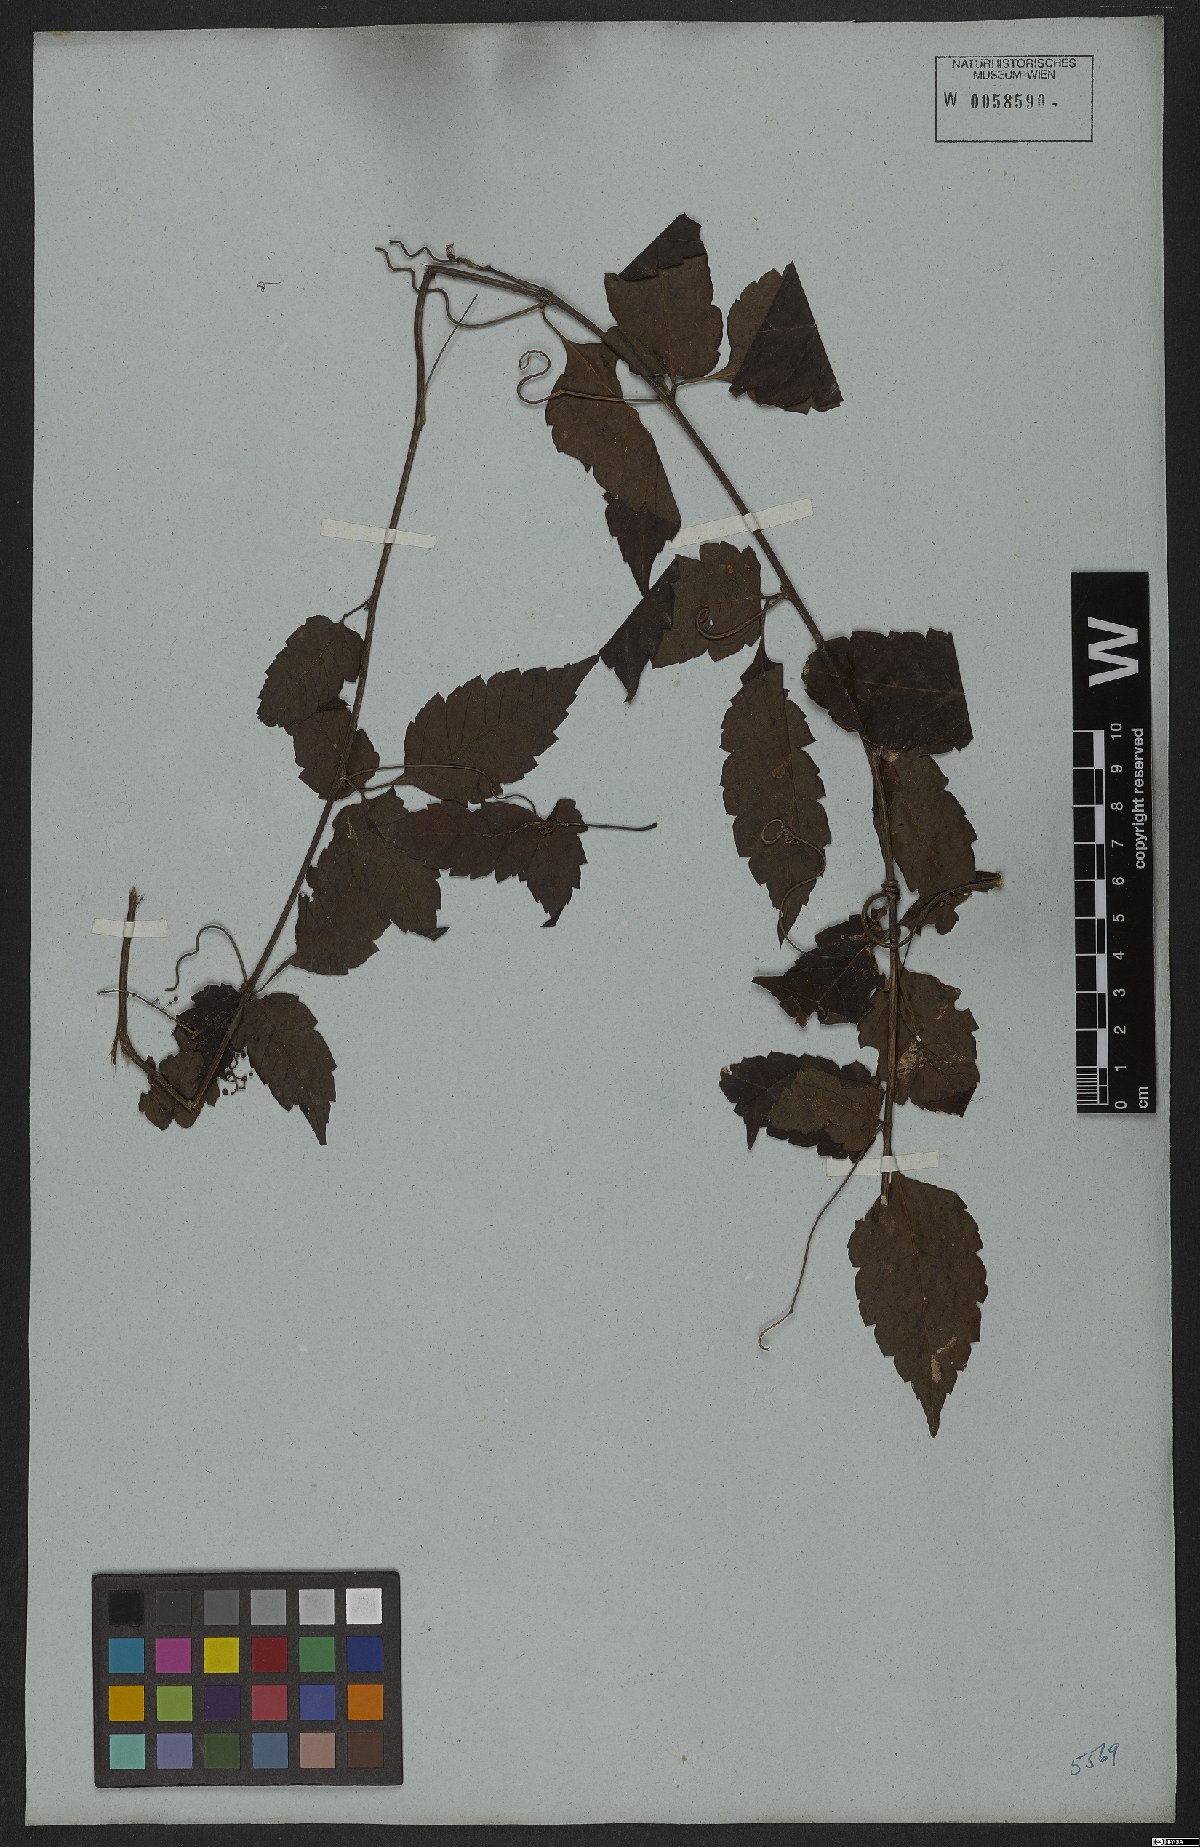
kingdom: Plantae
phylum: Tracheophyta
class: Magnoliopsida
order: Sapindales
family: Sapindaceae
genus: Urvillea
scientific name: Urvillea stipitata
